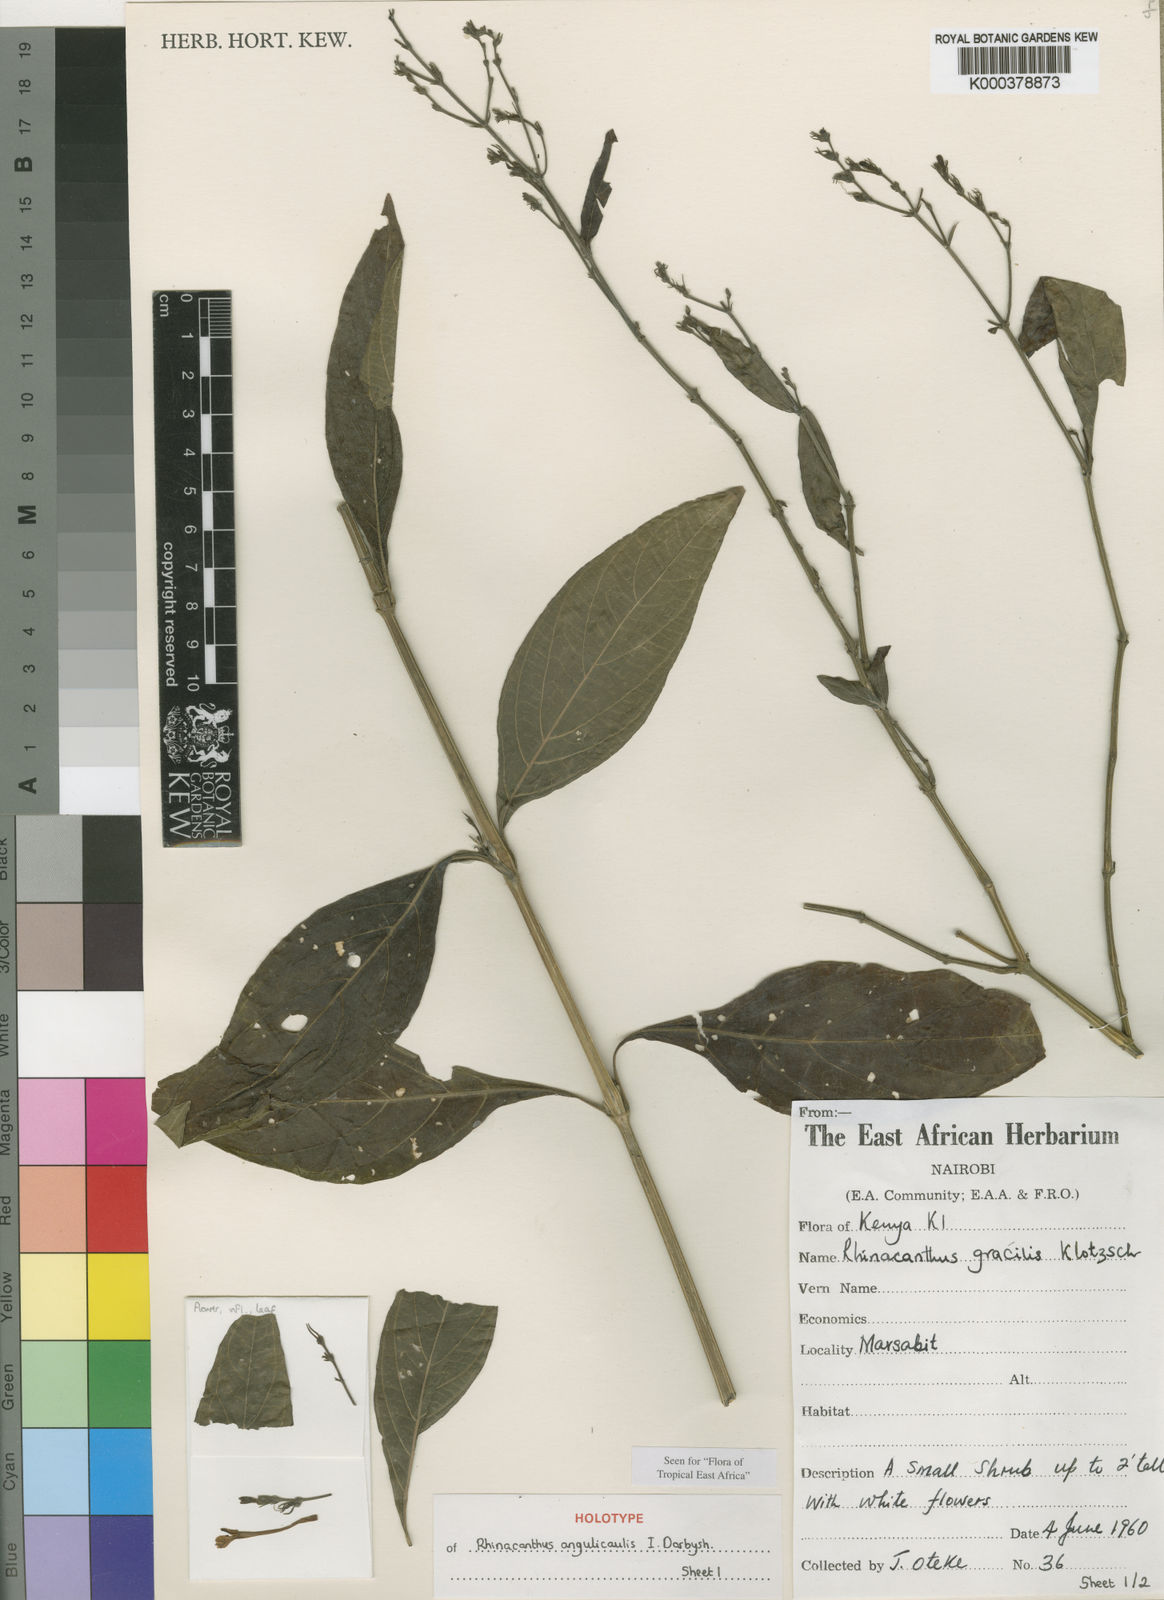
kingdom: Plantae
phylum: Tracheophyta
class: Magnoliopsida
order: Lamiales
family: Acanthaceae
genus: Rhinacanthus
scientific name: Rhinacanthus angulicaulis
